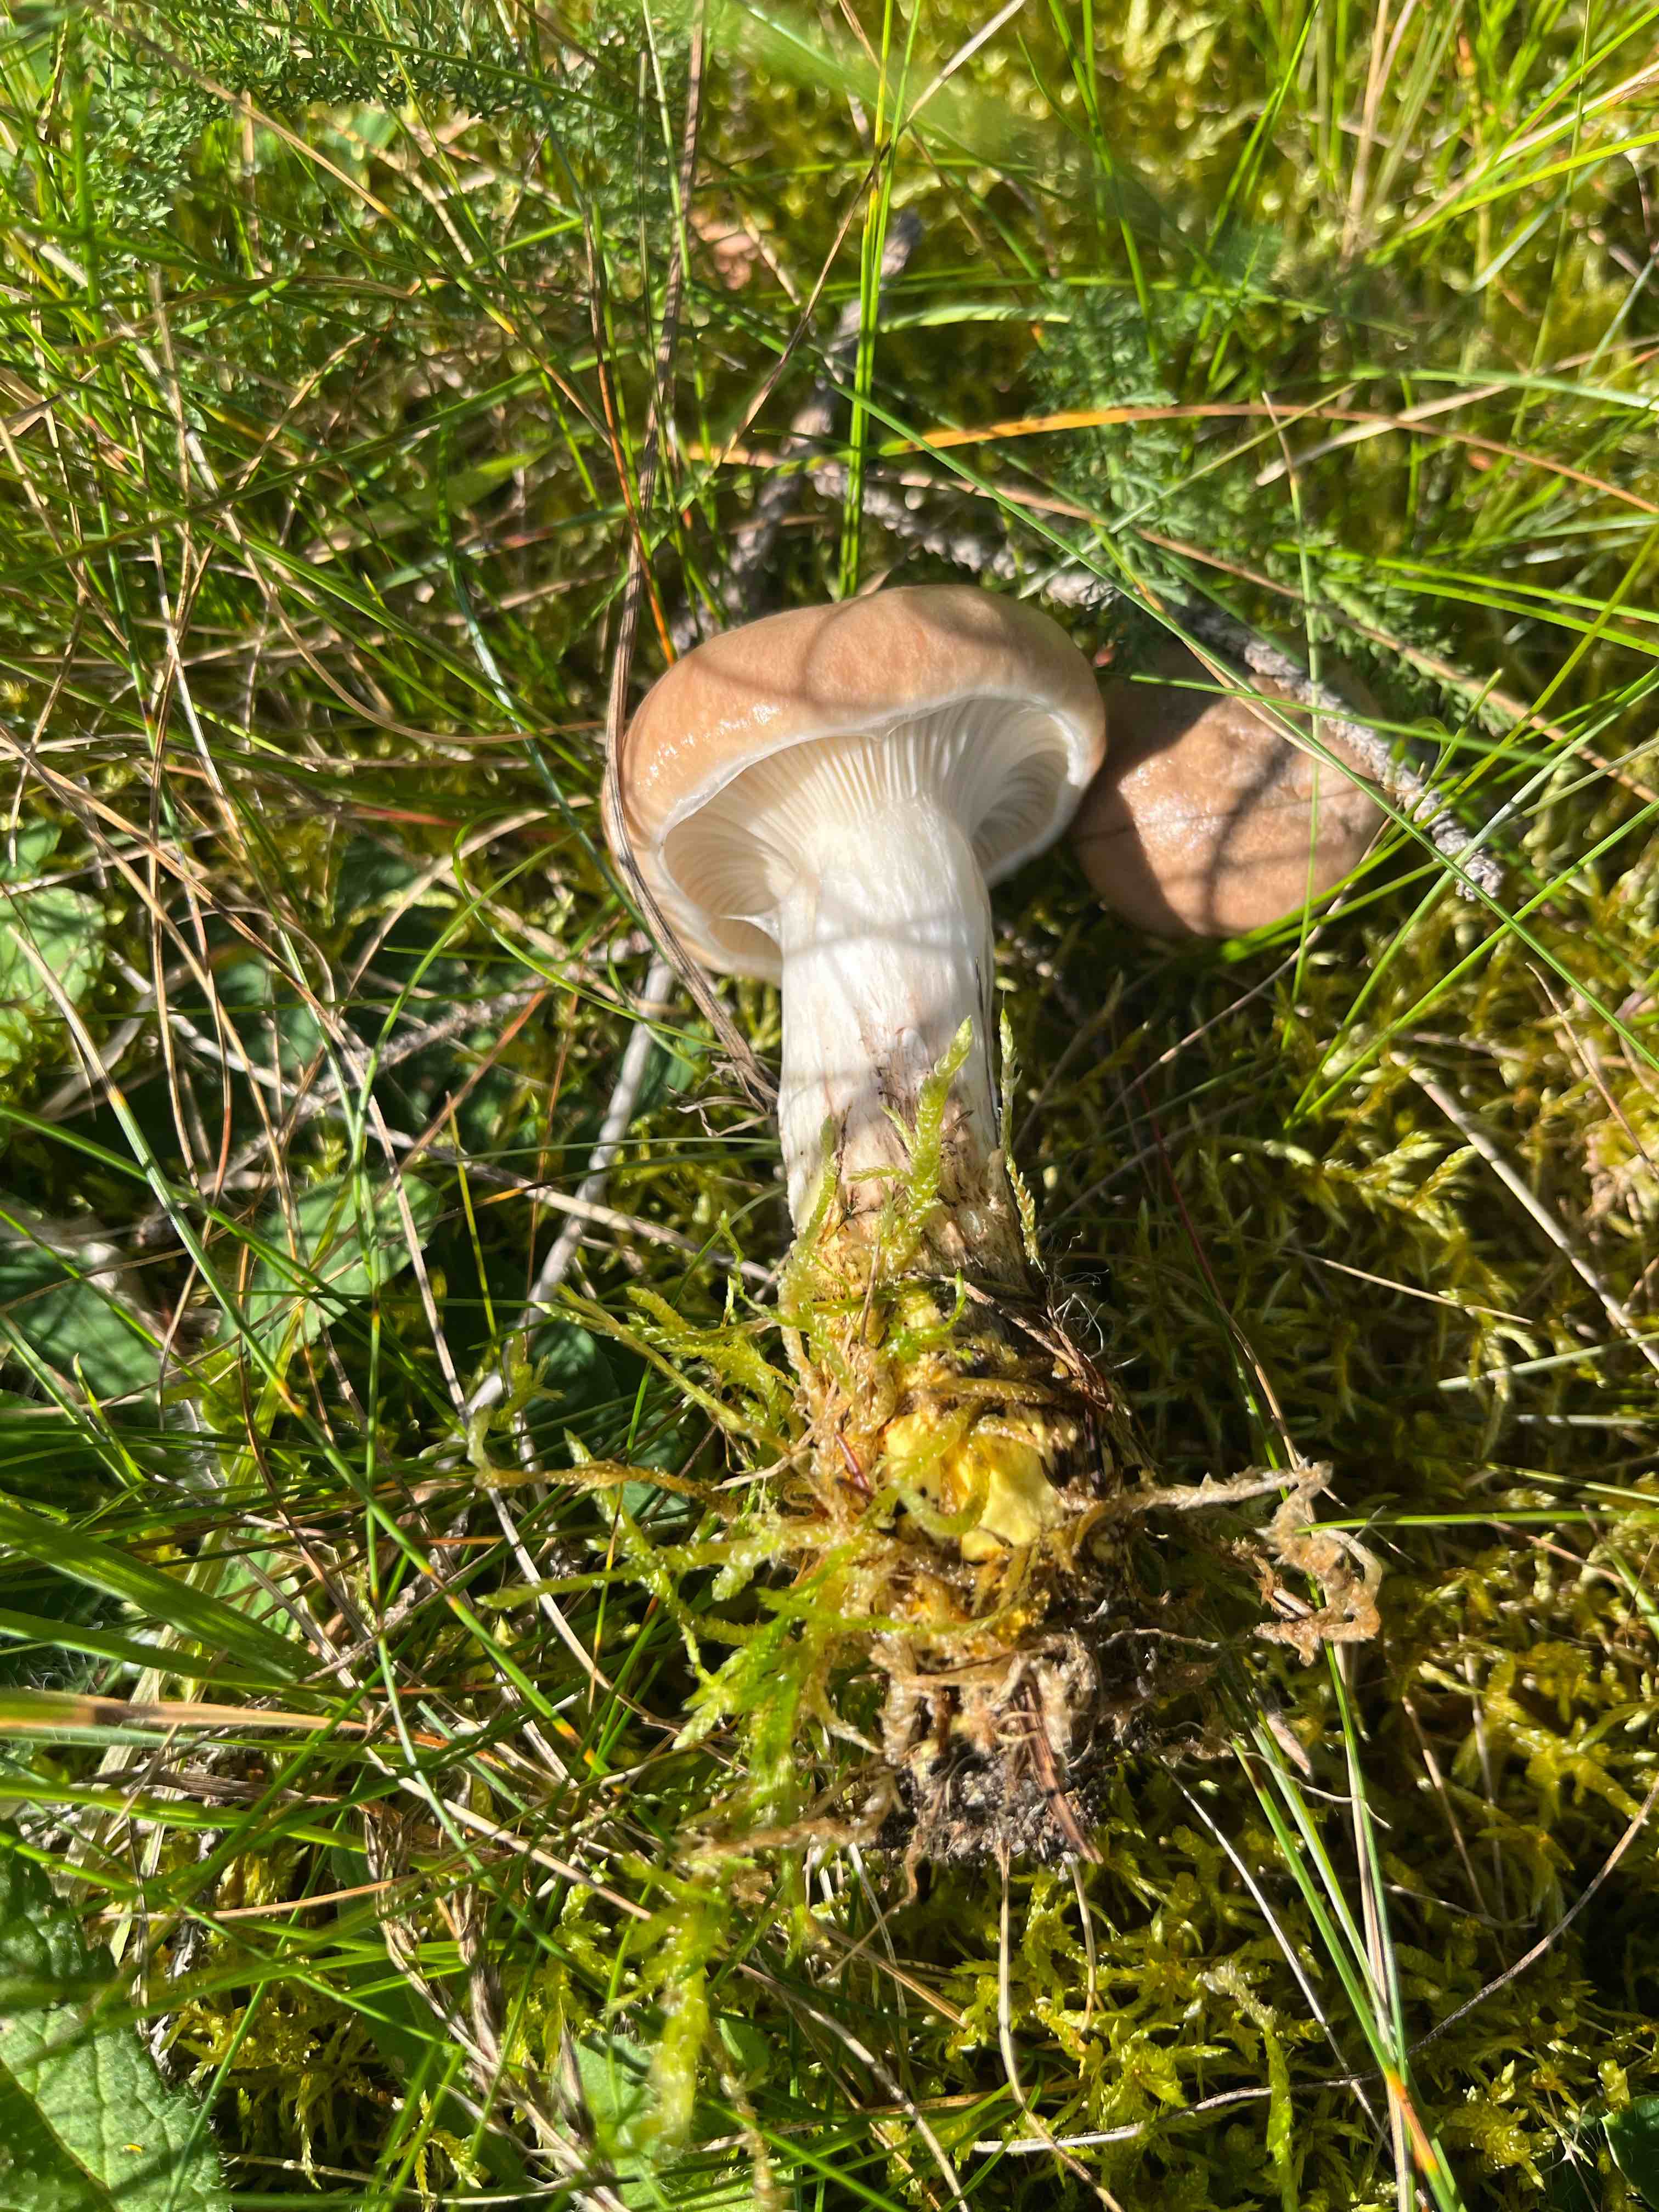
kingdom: Fungi
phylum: Basidiomycota
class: Agaricomycetes
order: Boletales
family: Gomphidiaceae
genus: Gomphidius
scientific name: Gomphidius glutinosus
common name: grå slimslør
